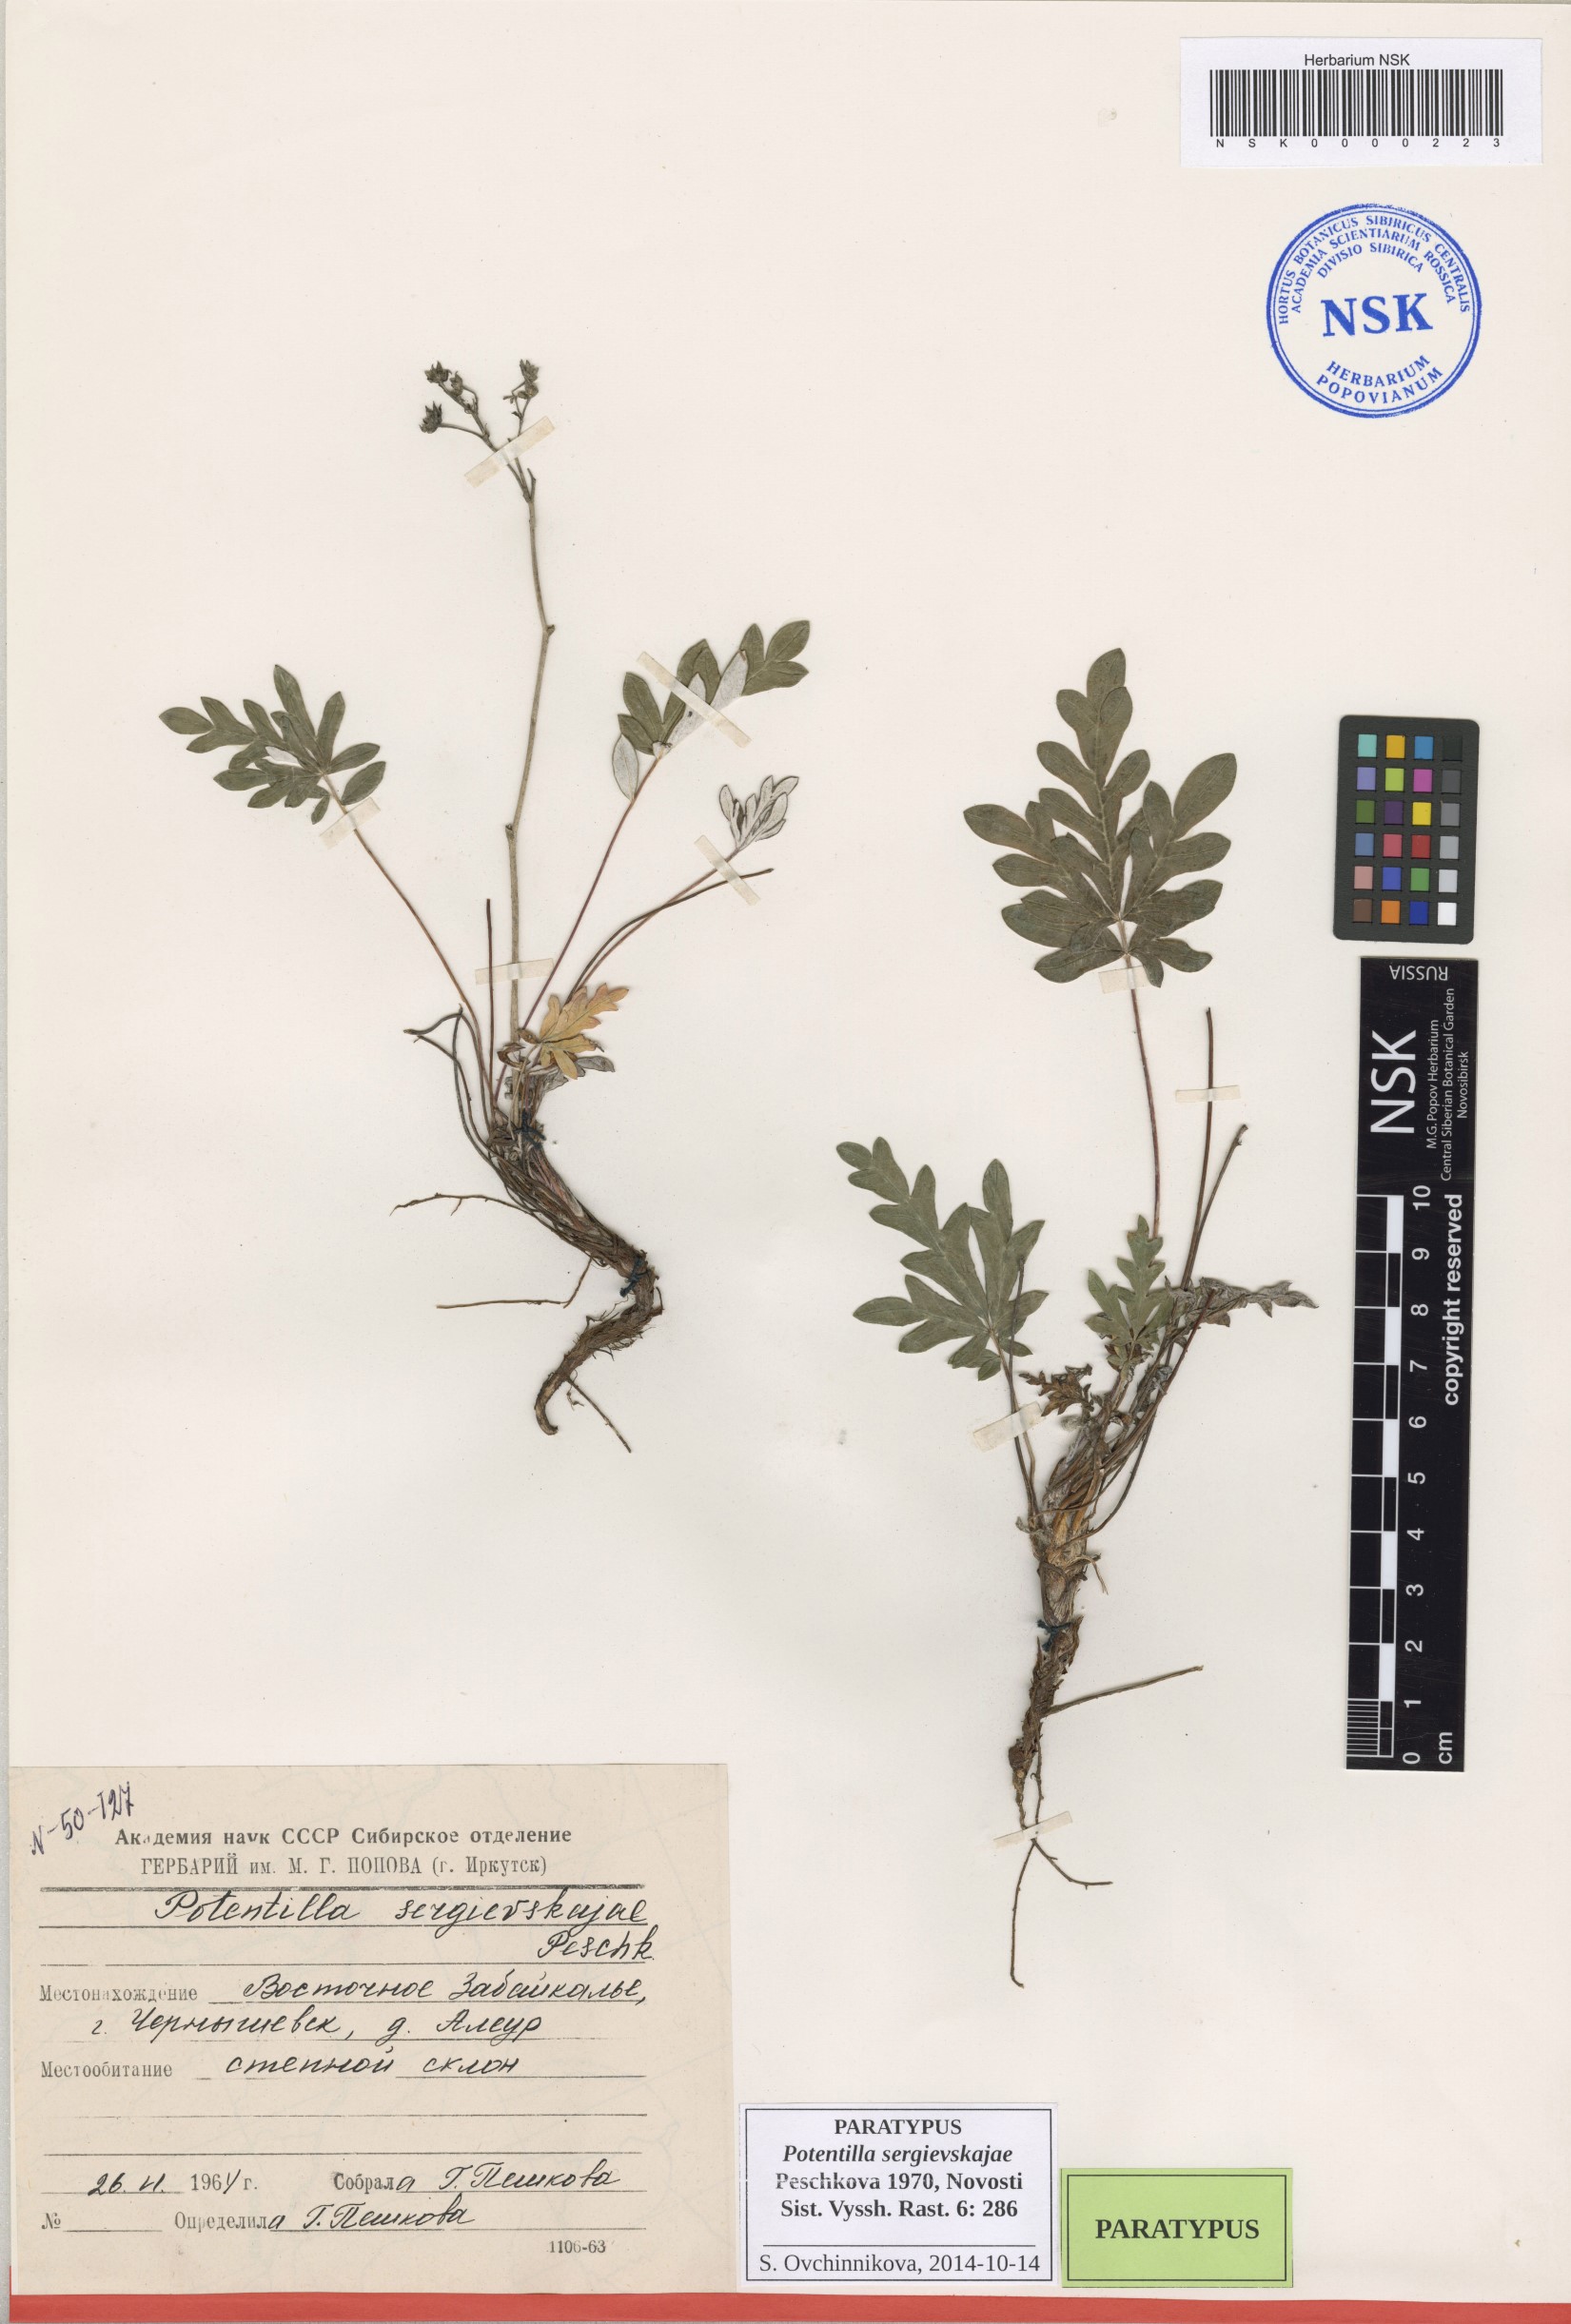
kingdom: Plantae
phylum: Tracheophyta
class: Magnoliopsida
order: Rosales
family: Rosaceae
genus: Potentilla
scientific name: Potentilla sergievskajae
